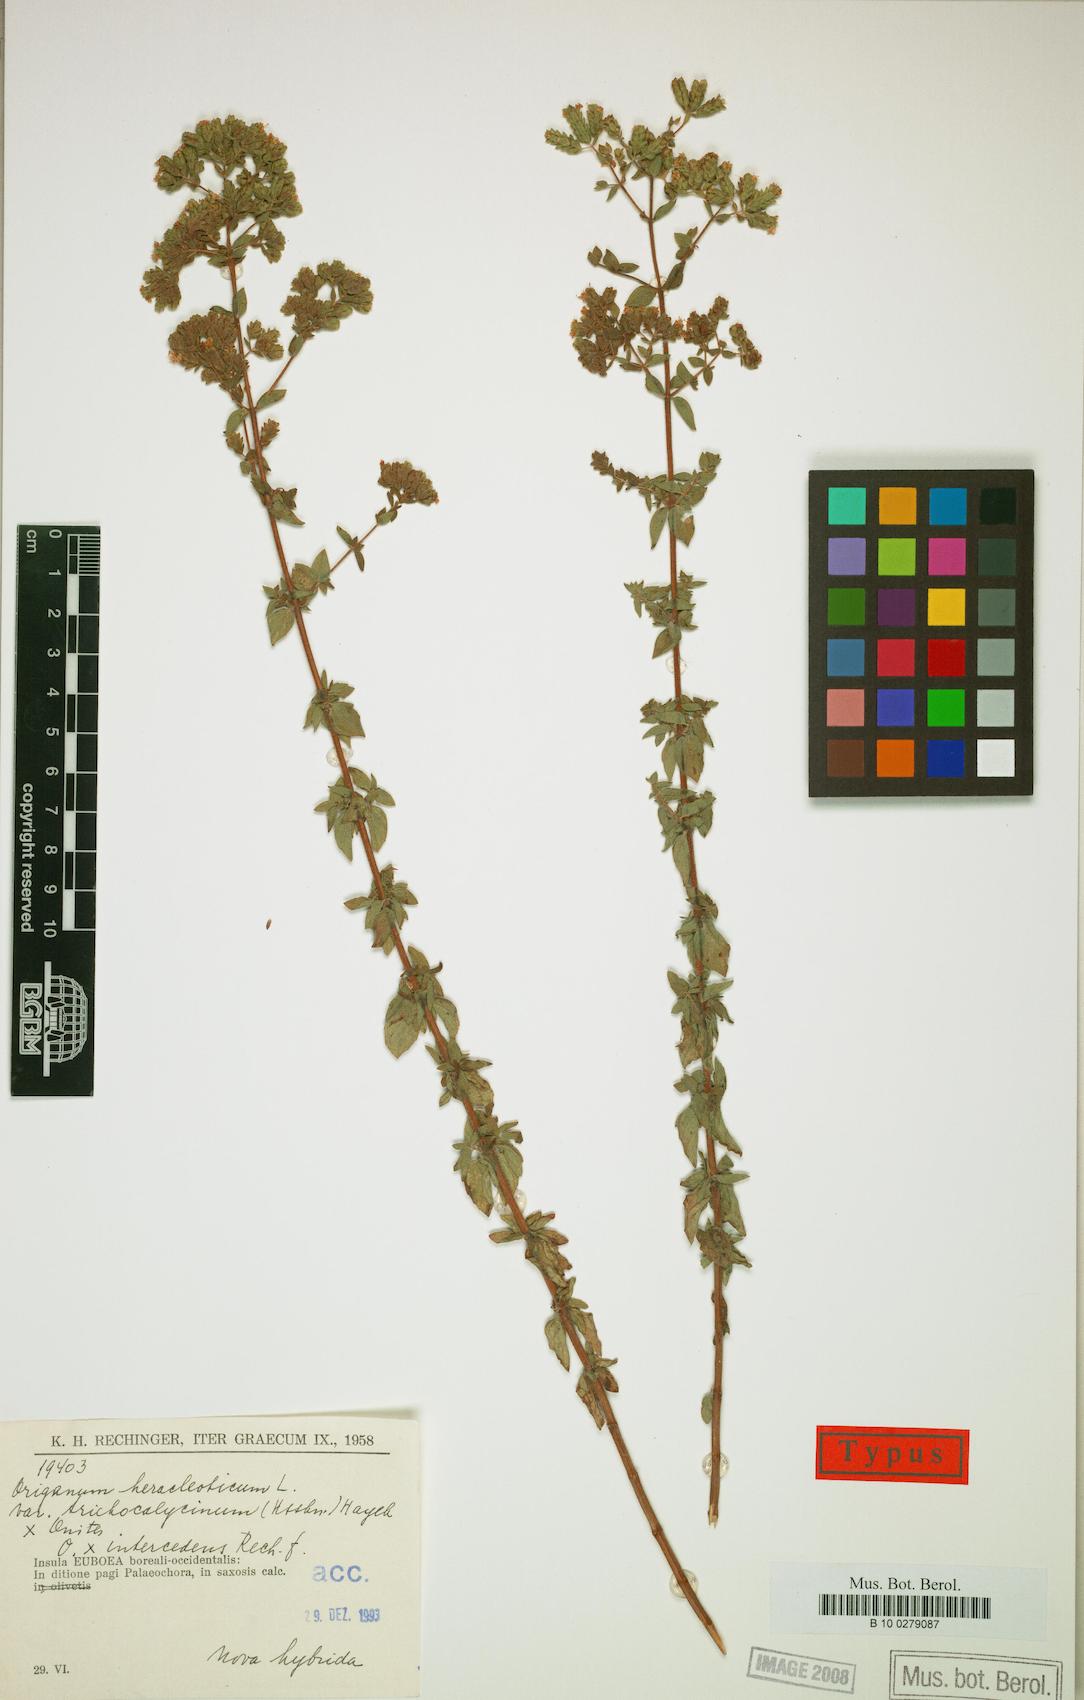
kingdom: Plantae
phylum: Tracheophyta
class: Magnoliopsida
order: Lamiales
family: Lamiaceae
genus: Origanum
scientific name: Origanum intercedens
